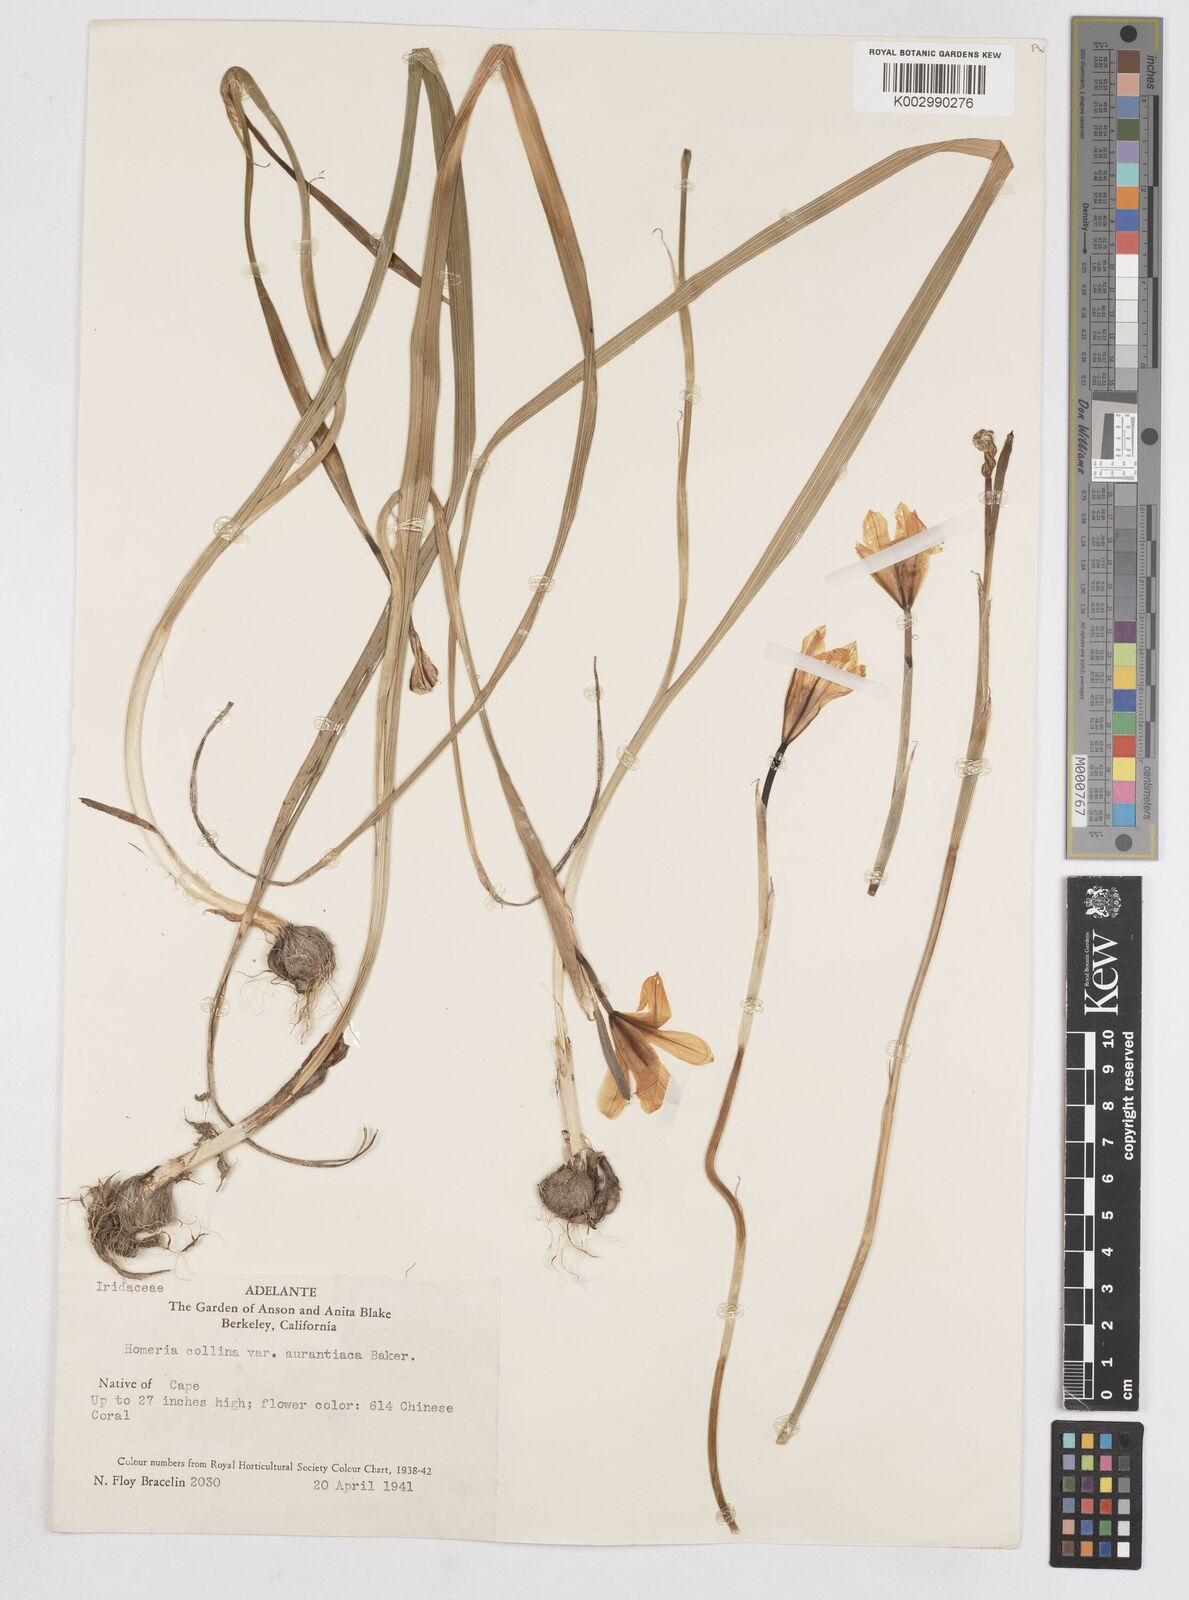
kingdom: Plantae
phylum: Tracheophyta
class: Liliopsida
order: Asparagales
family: Iridaceae
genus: Moraea
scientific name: Moraea
